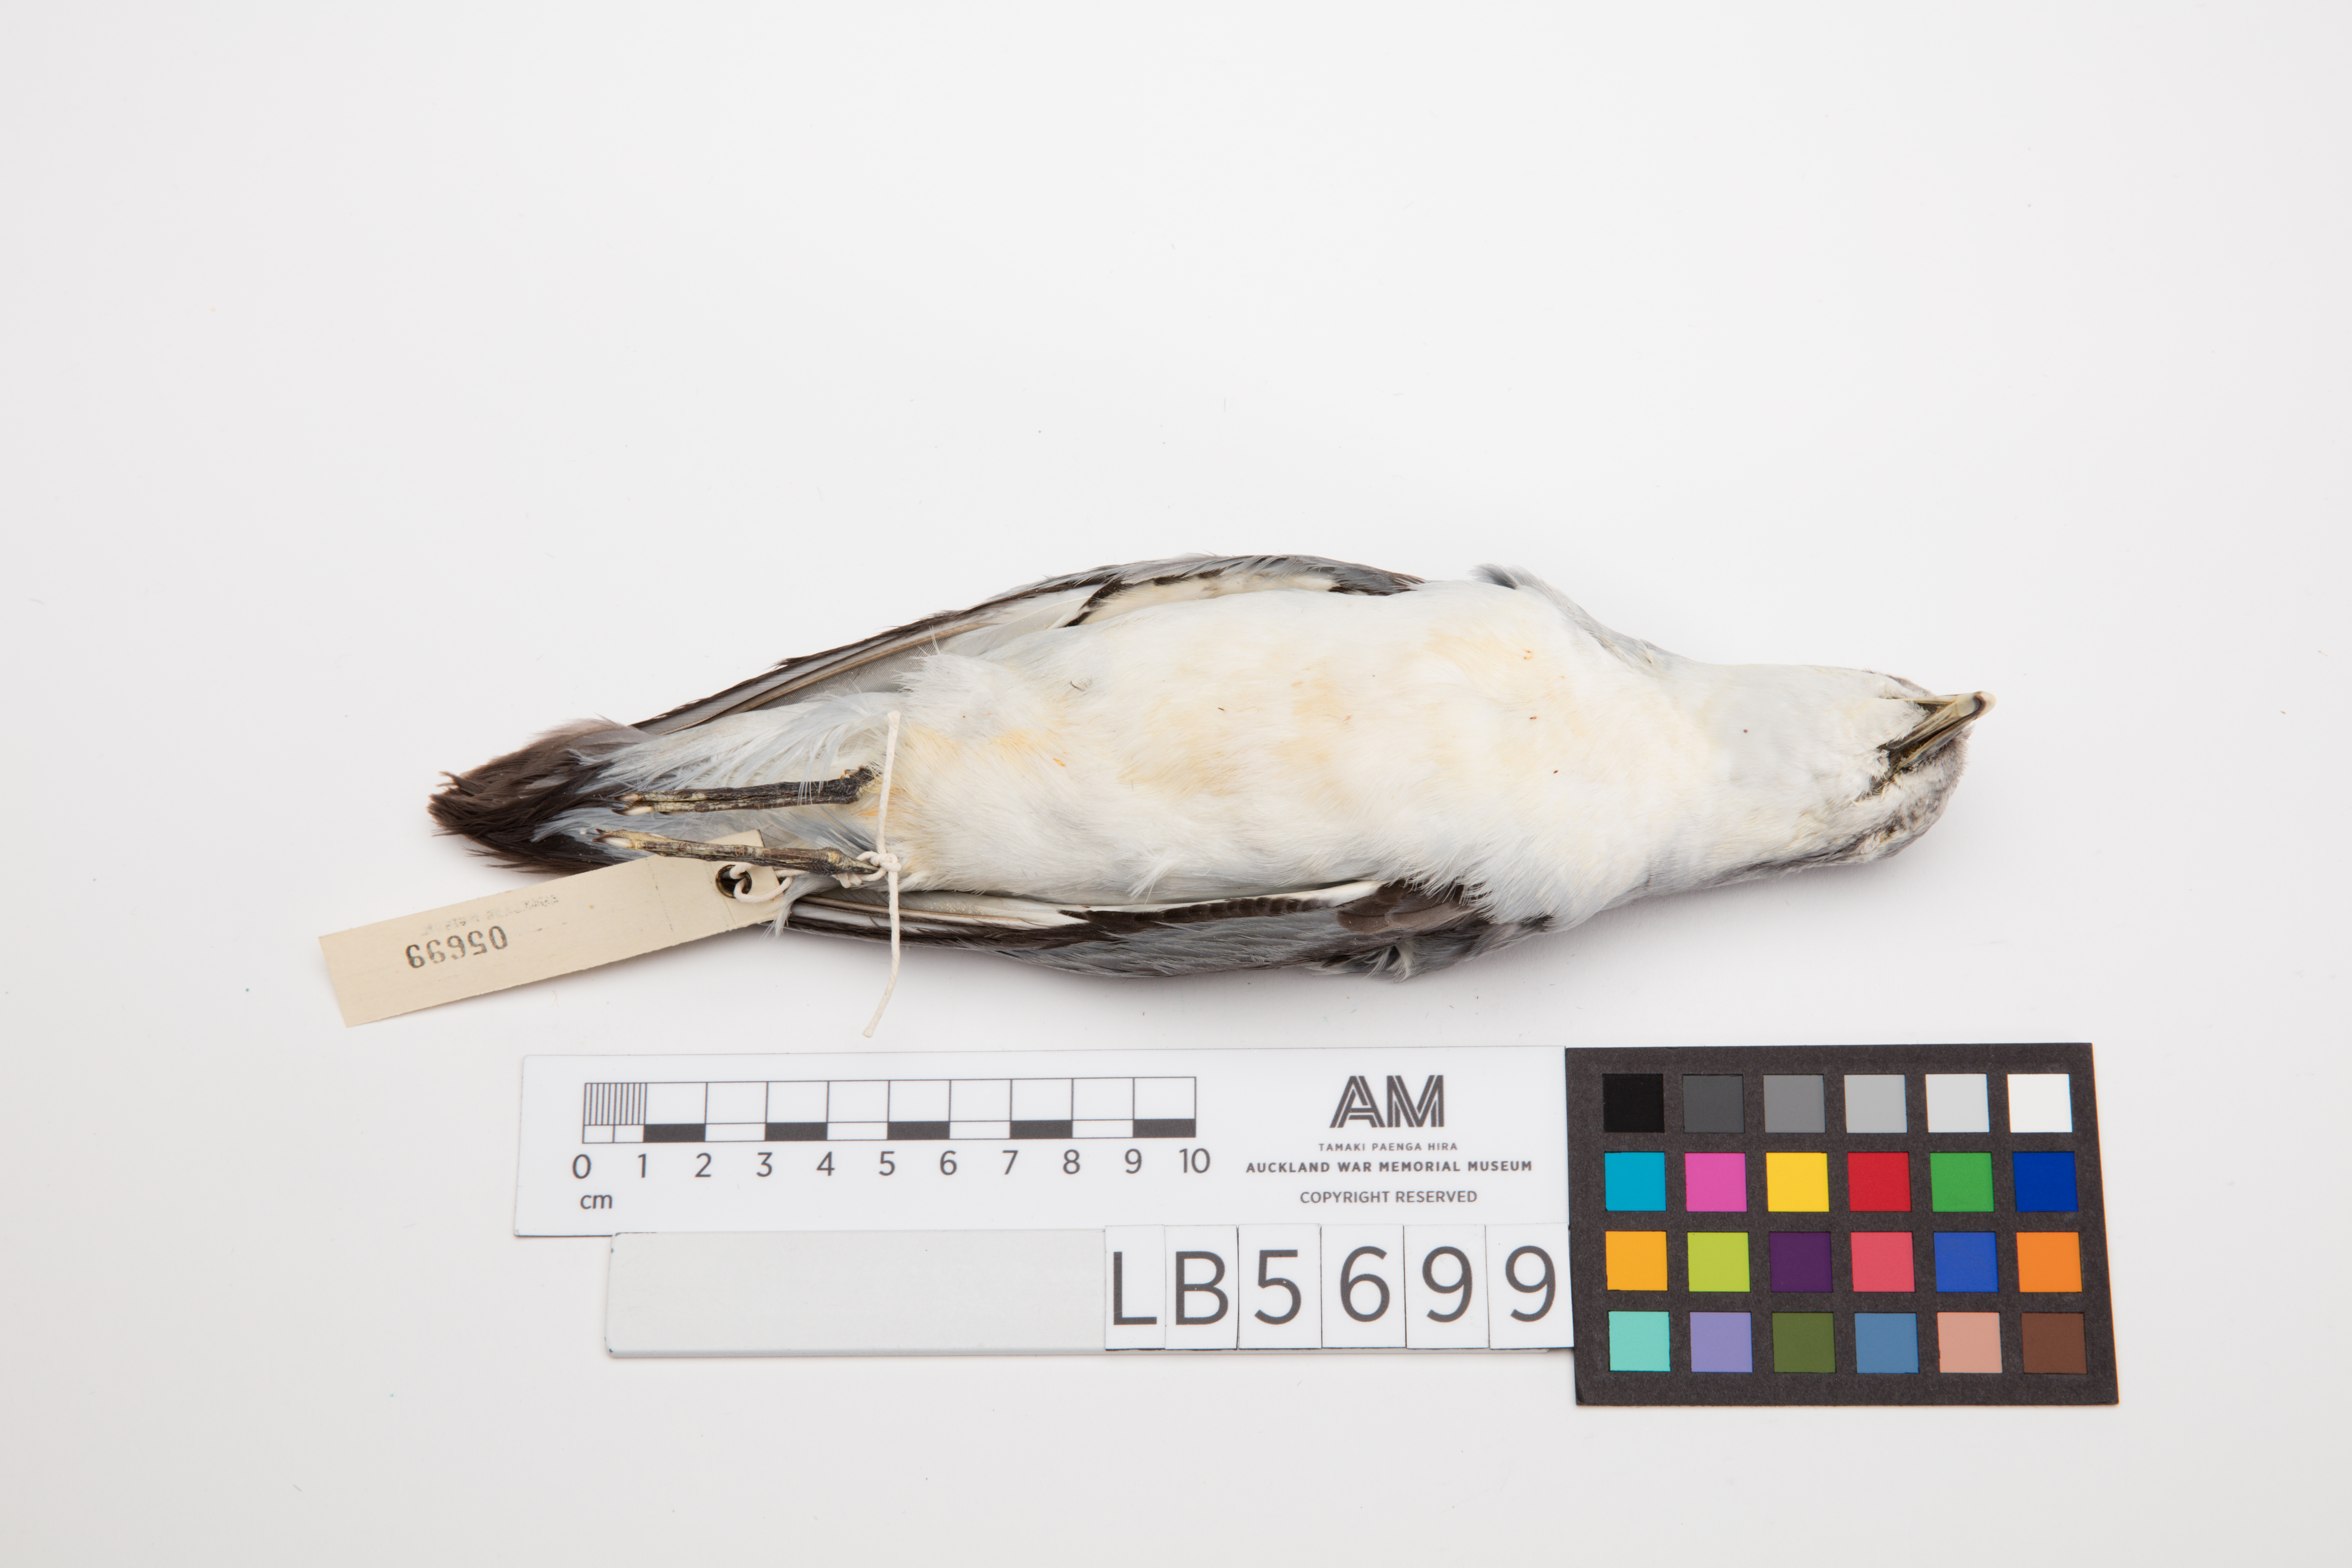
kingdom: Animalia
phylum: Chordata
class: Aves
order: Procellariiformes
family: Procellariidae
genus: Pachyptila
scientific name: Pachyptila turtur
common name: Fairy prion
